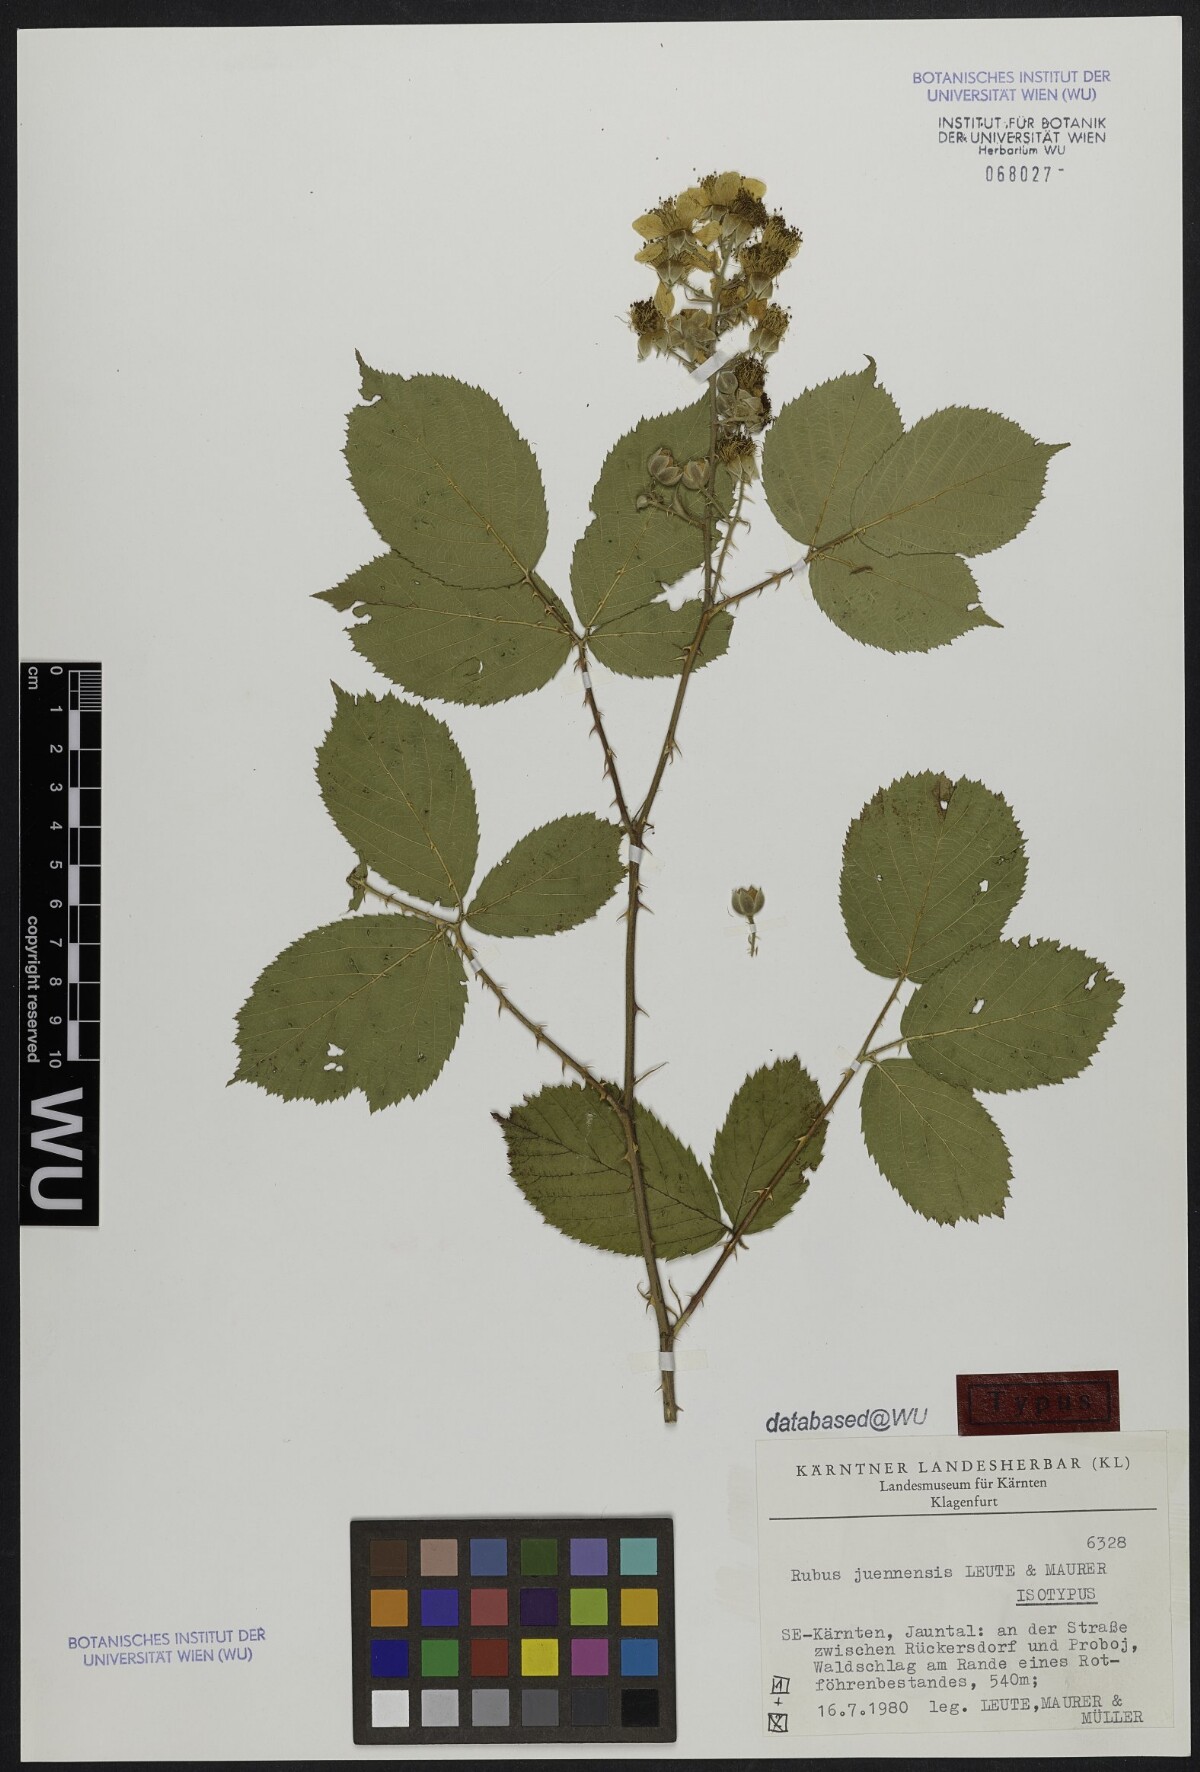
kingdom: Plantae
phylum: Tracheophyta
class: Magnoliopsida
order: Rosales
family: Rosaceae
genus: Rubus
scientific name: Rubus juennensis
